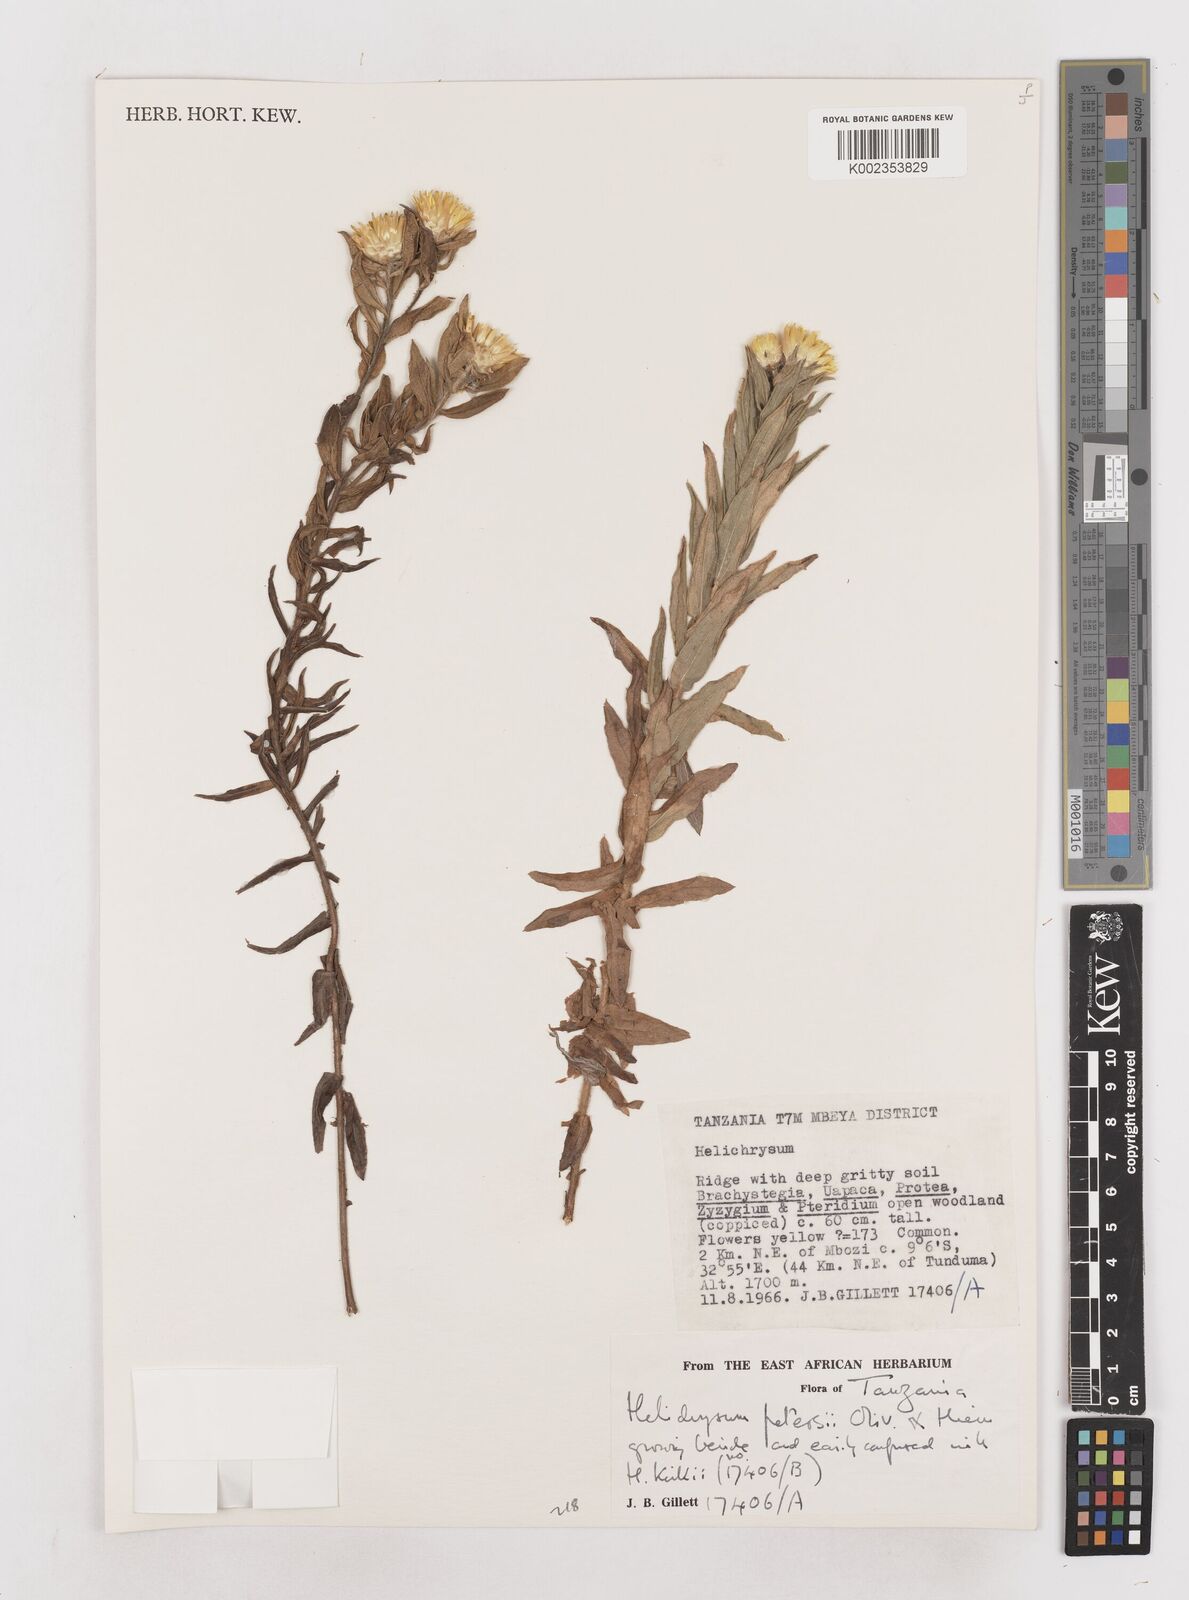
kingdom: Plantae
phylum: Tracheophyta
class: Magnoliopsida
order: Asterales
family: Asteraceae
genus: Helichrysum
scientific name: Helichrysum kirkii
